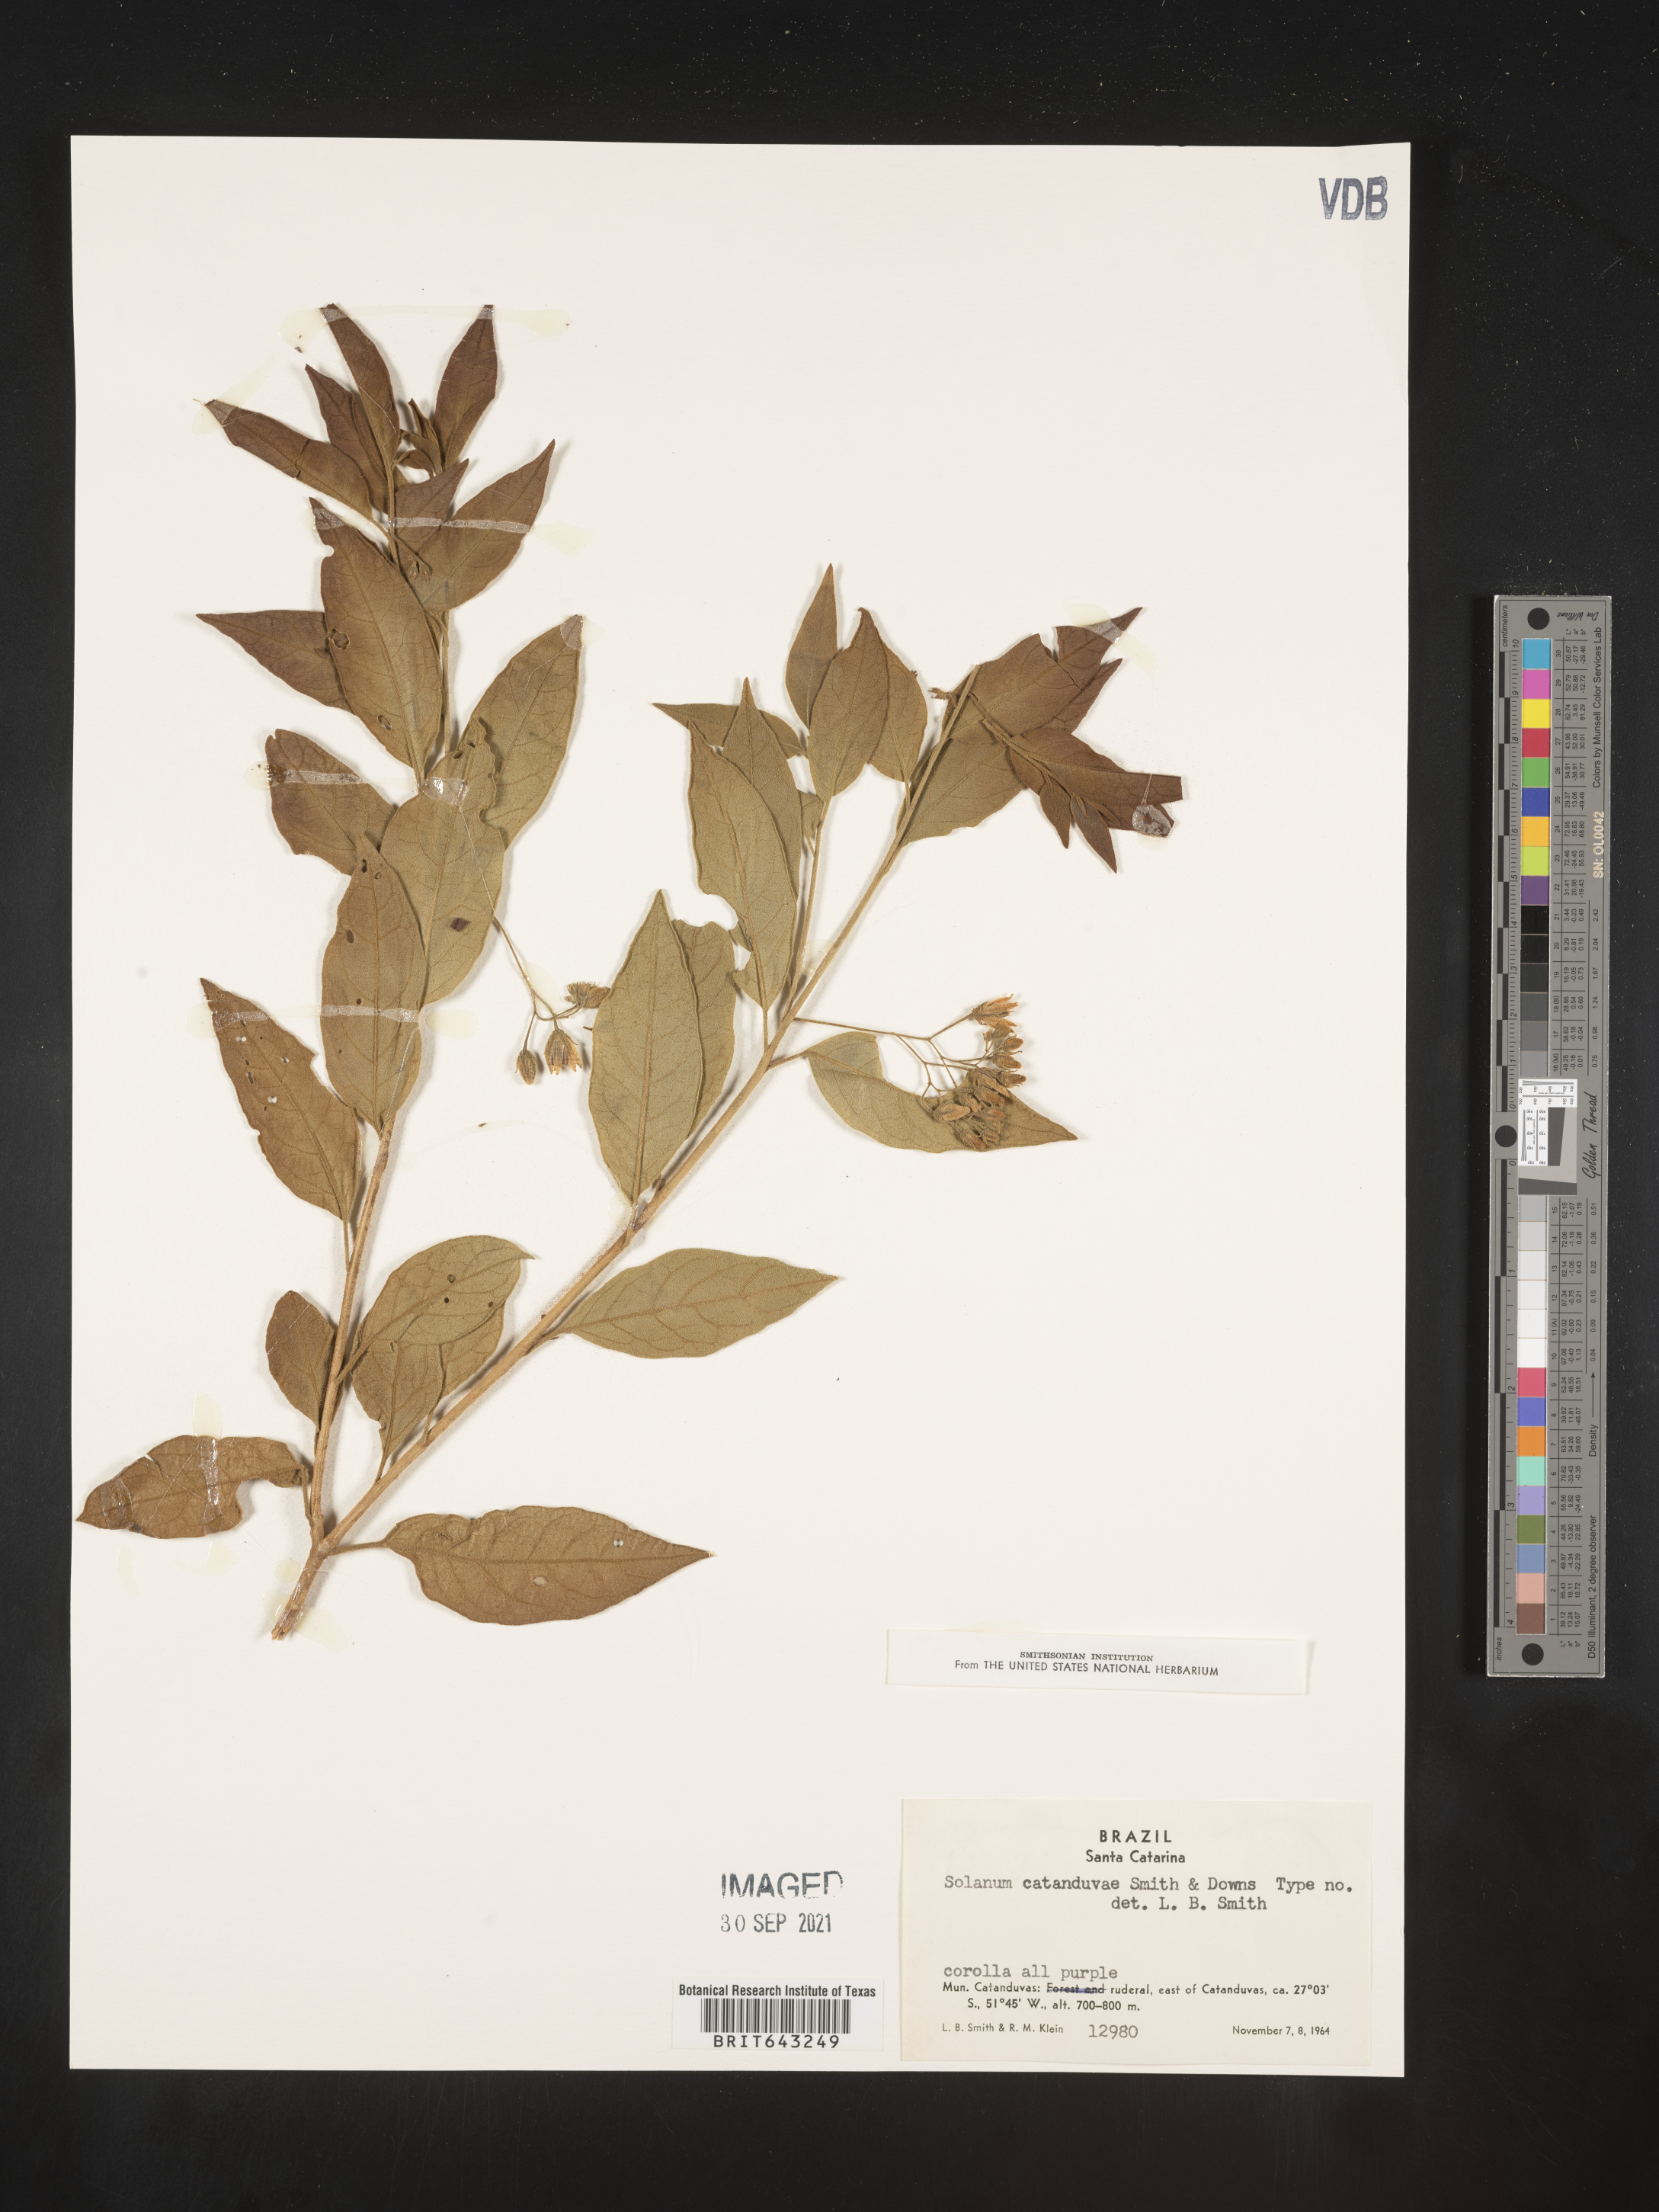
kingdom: Plantae
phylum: Tracheophyta
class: Magnoliopsida
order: Solanales
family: Solanaceae
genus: Solanum
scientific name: Solanum
